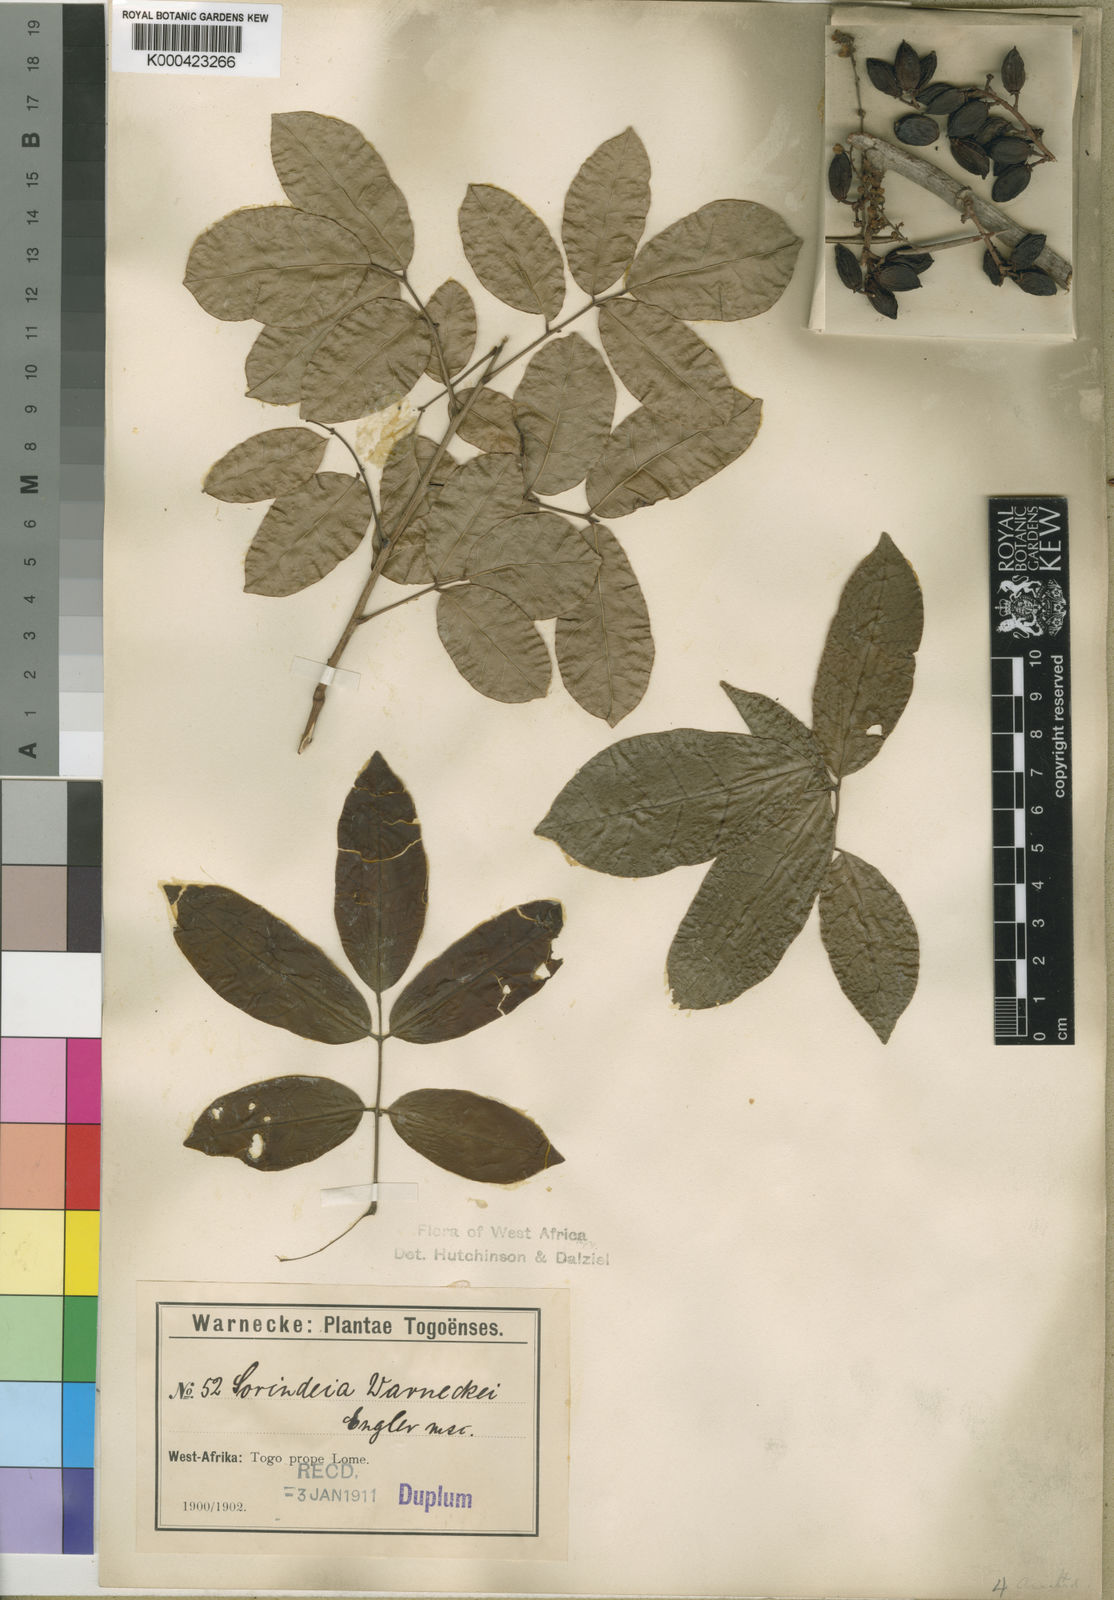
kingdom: Plantae
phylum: Tracheophyta
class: Magnoliopsida
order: Sapindales
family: Anacardiaceae
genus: Sorindeia
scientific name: Sorindeia grandifolia
